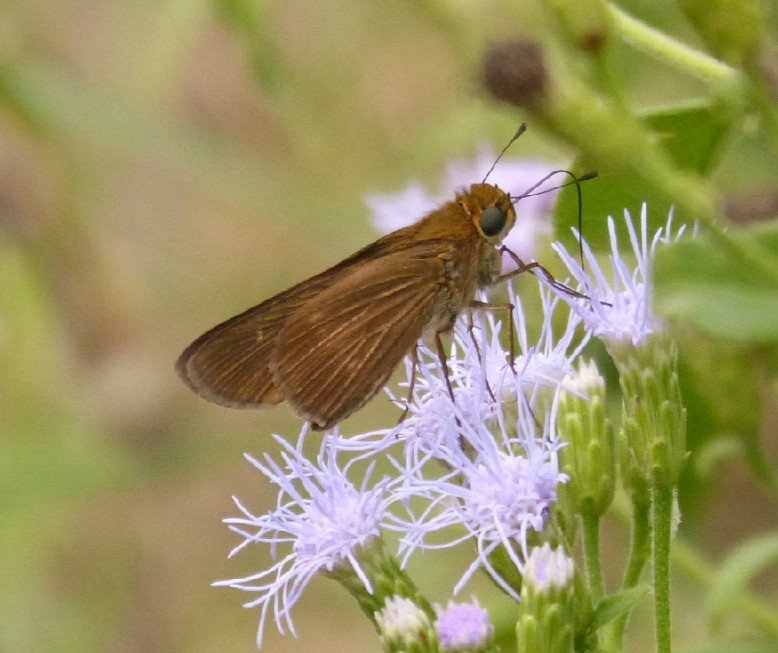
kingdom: Animalia
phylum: Arthropoda
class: Insecta
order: Lepidoptera
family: Hesperiidae
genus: Panoquina
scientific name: Panoquina ocola
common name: Ocola Skipper
